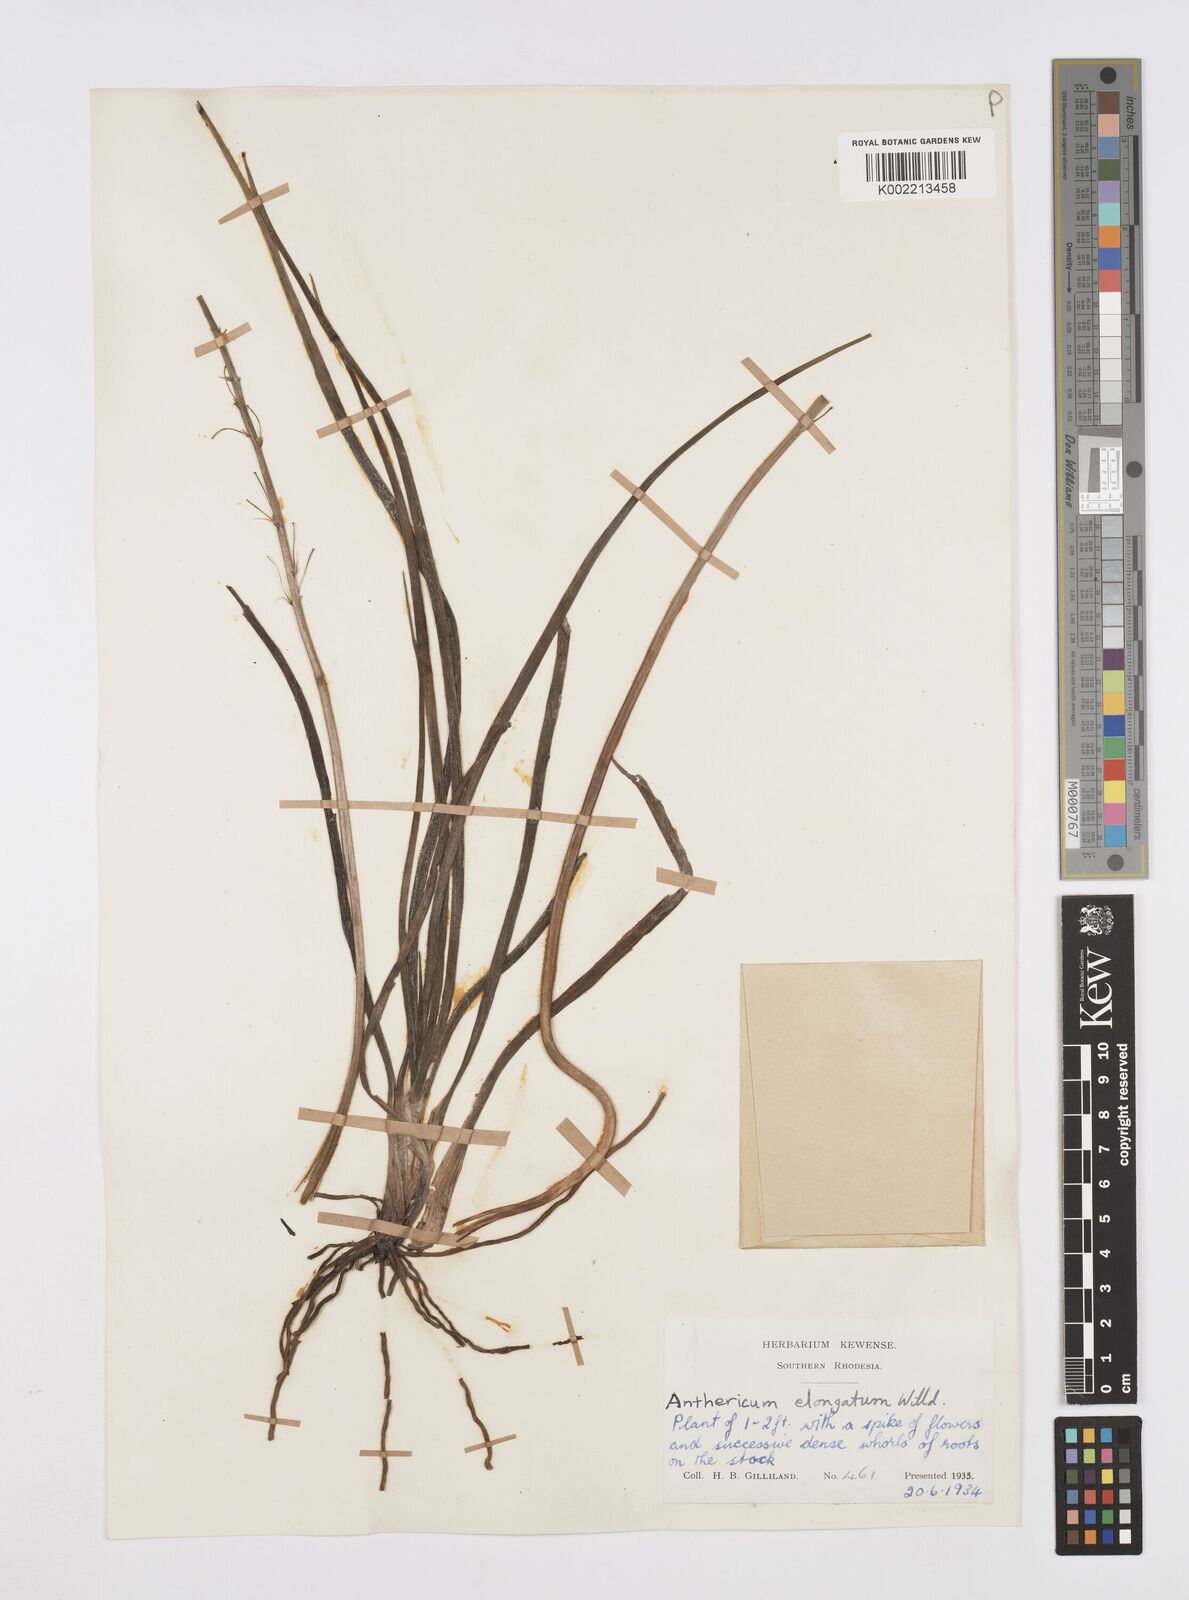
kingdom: Plantae
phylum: Tracheophyta
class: Liliopsida
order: Asparagales
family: Asphodelaceae
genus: Trachyandra
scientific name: Trachyandra saltii
